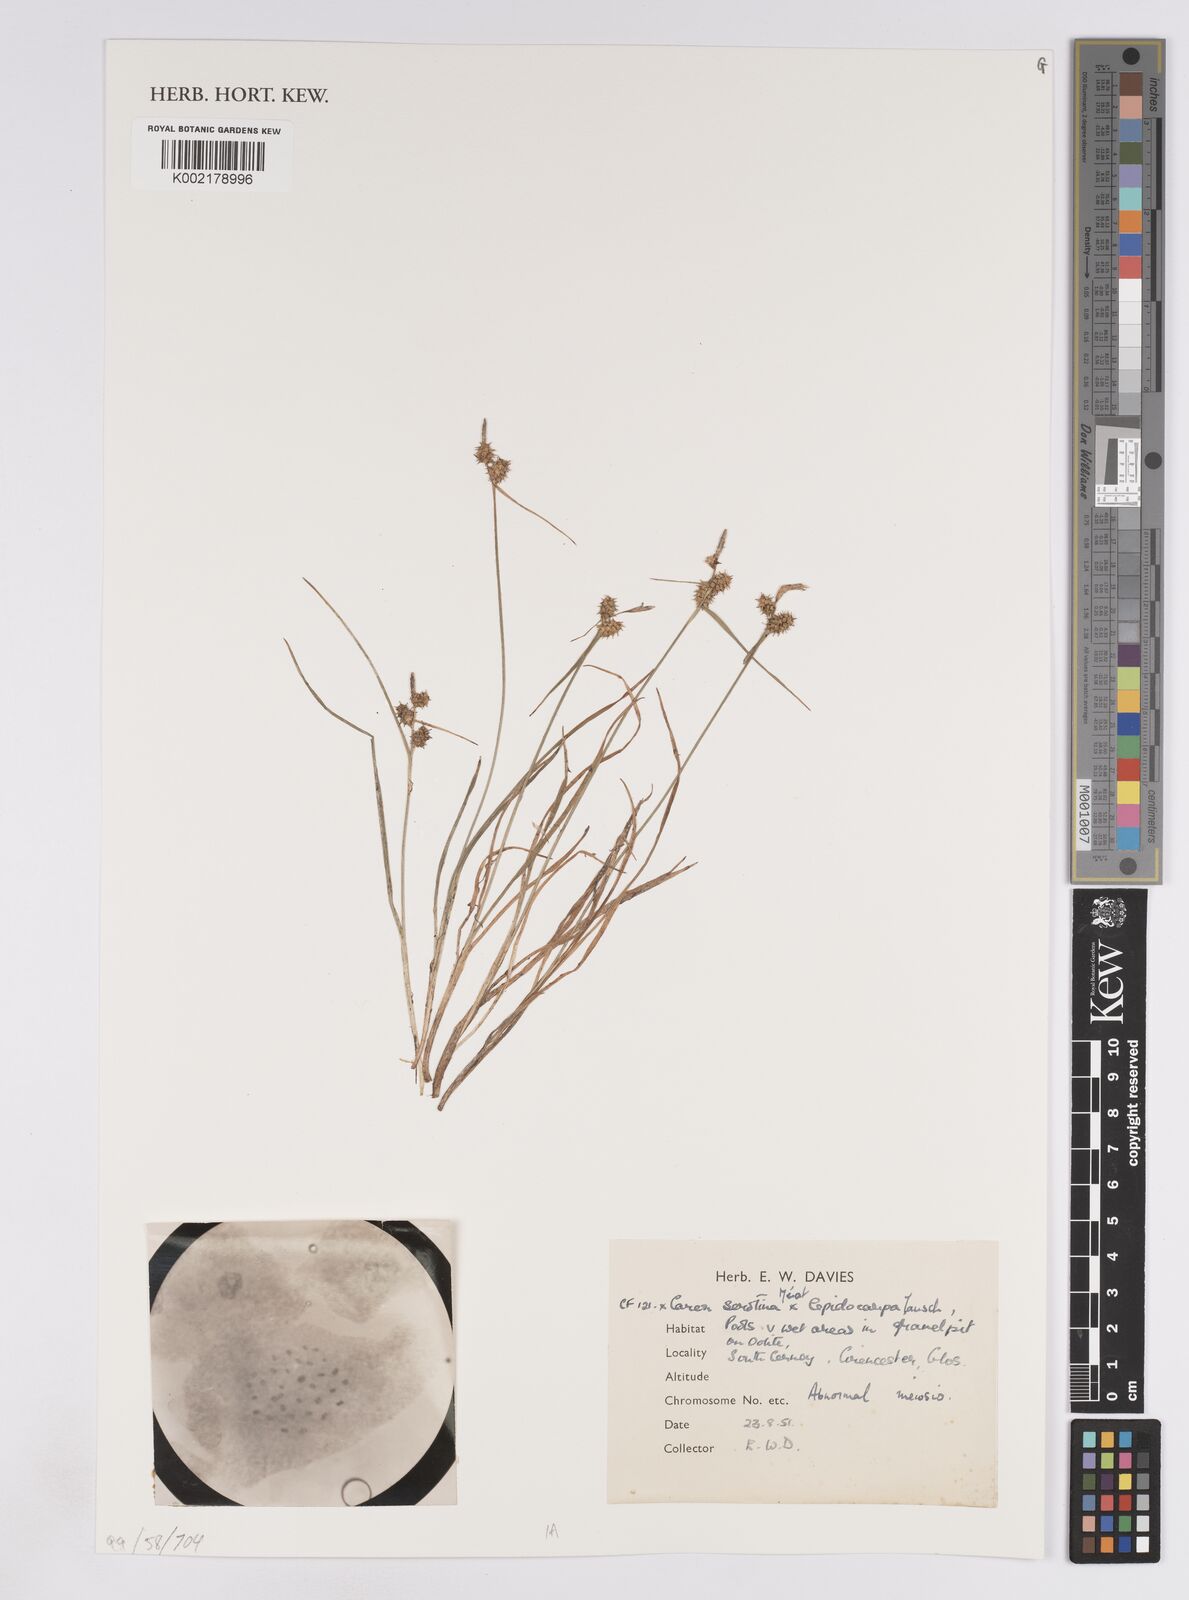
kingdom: Plantae
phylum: Tracheophyta
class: Liliopsida
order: Poales
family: Cyperaceae
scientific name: Cyperaceae
